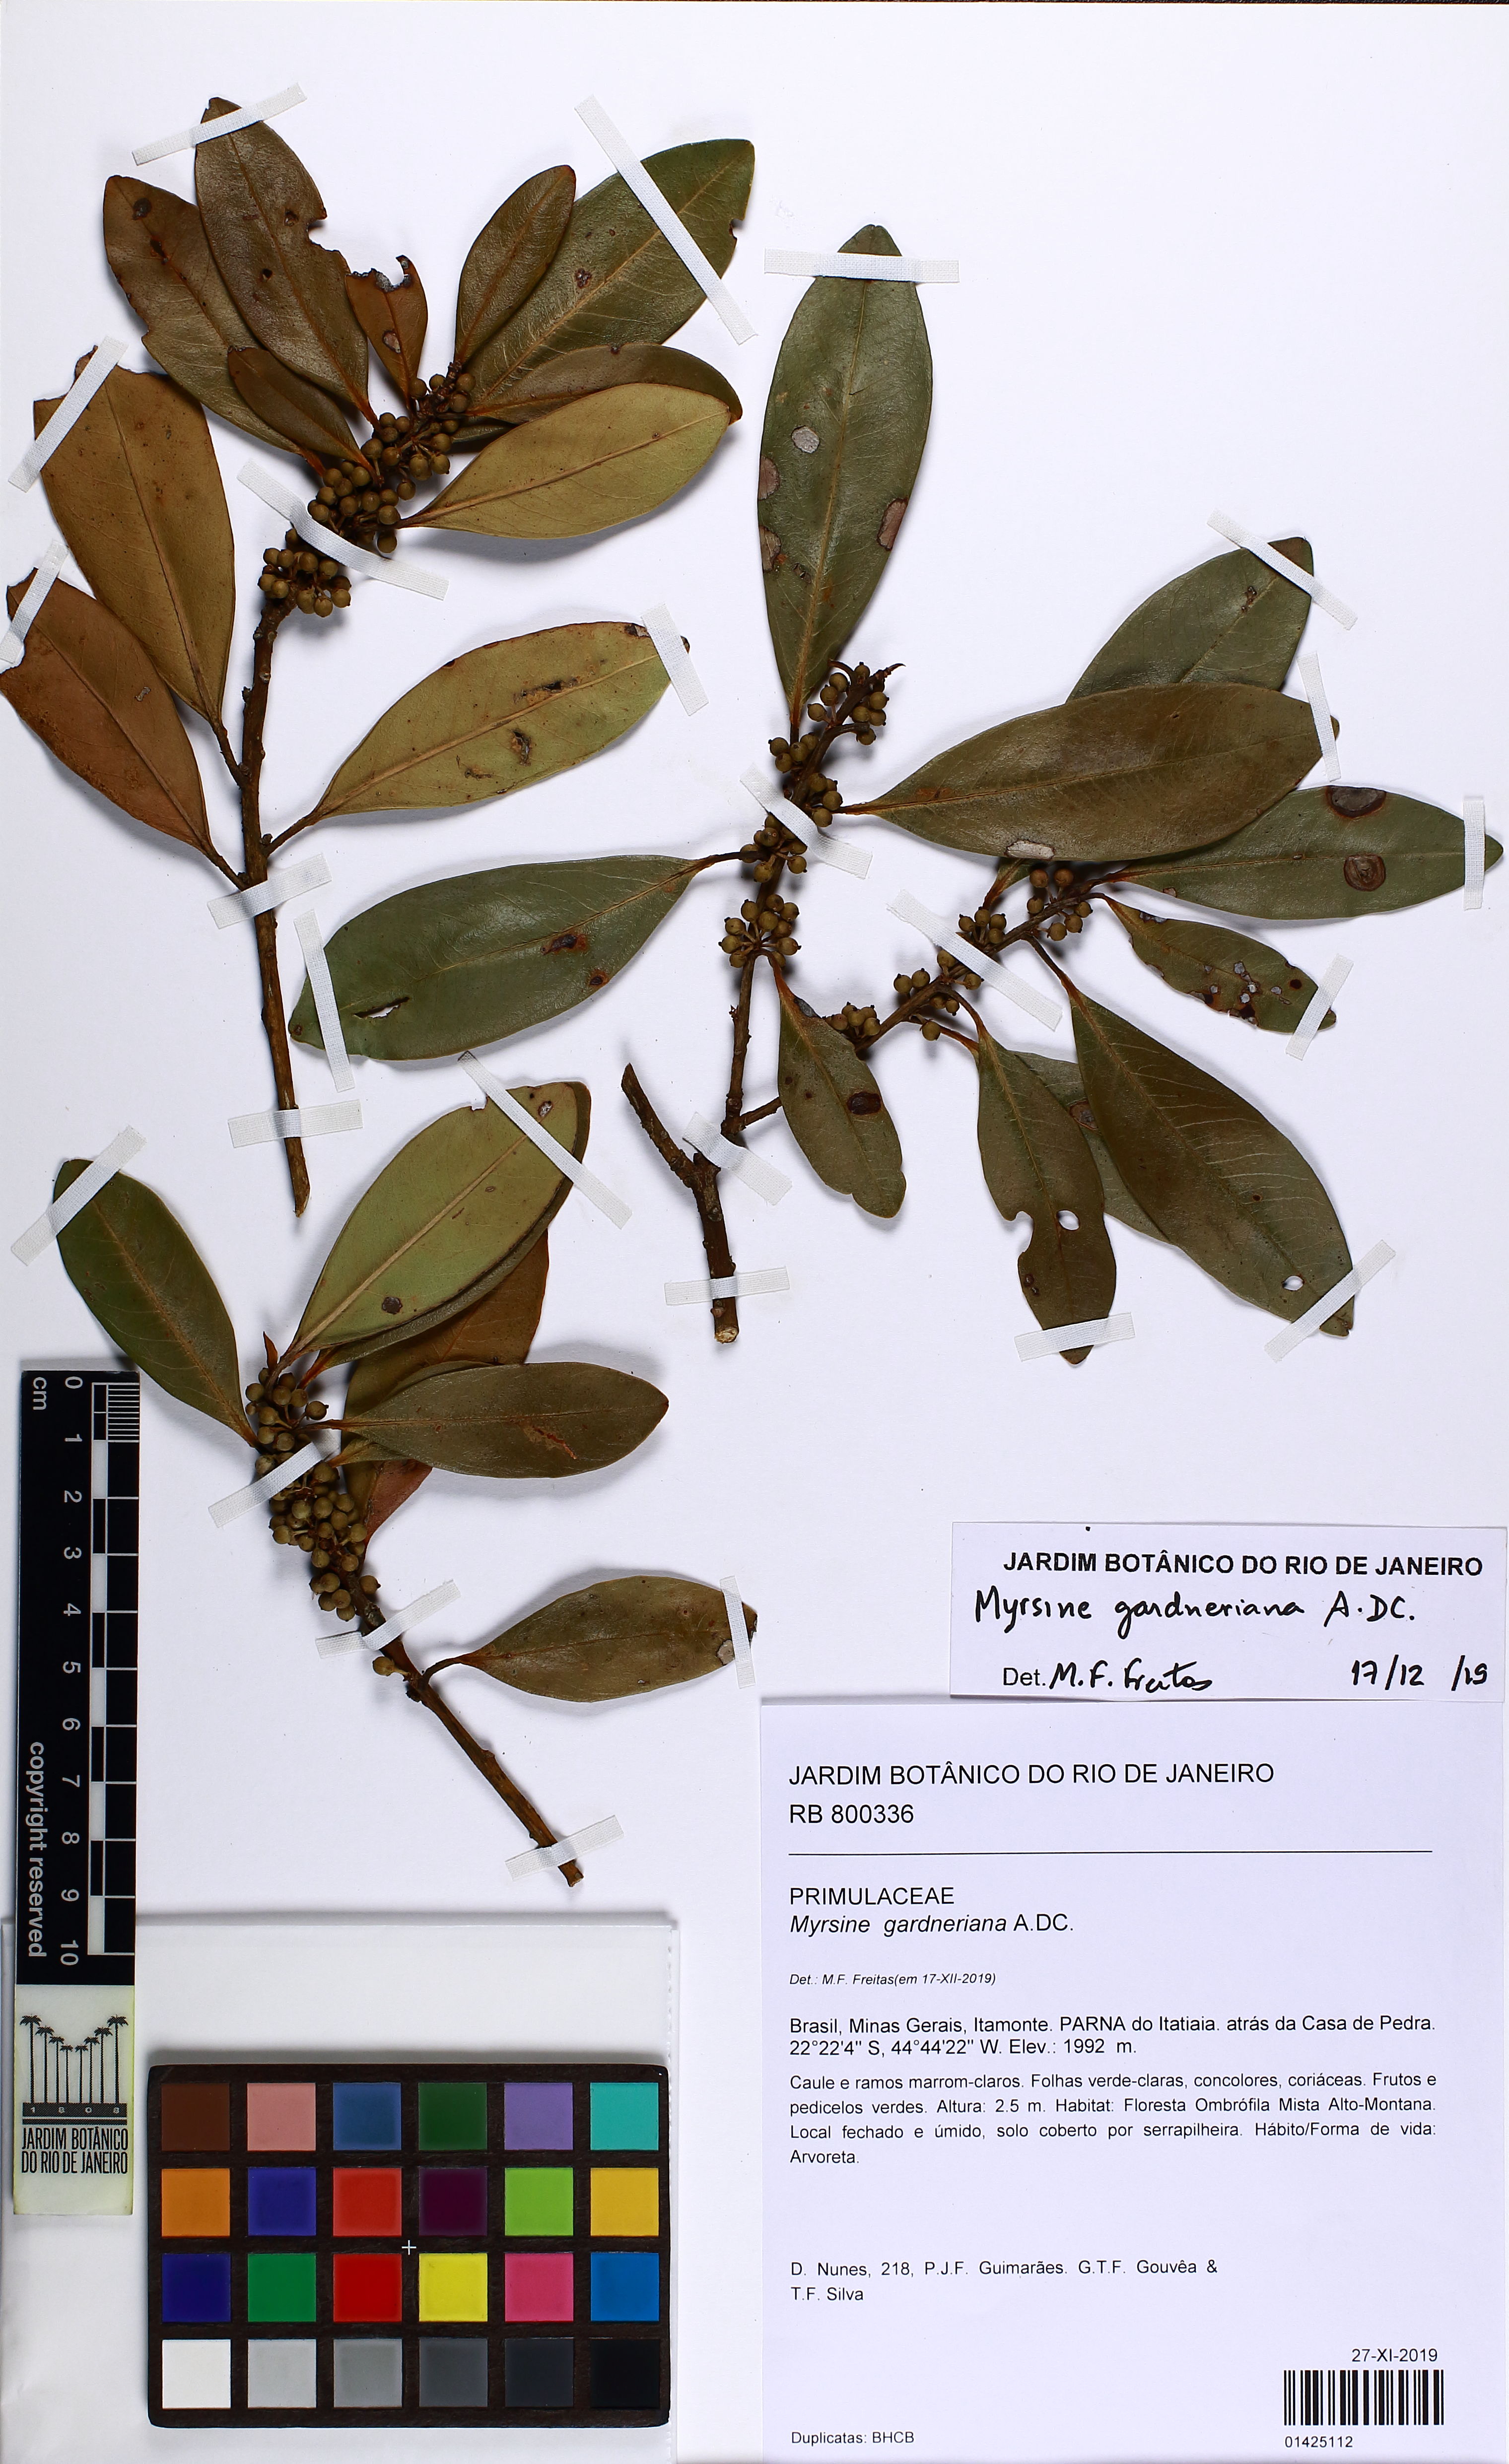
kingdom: Plantae
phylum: Tracheophyta
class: Magnoliopsida
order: Ericales
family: Primulaceae
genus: Myrsine
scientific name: Myrsine gardneriana
